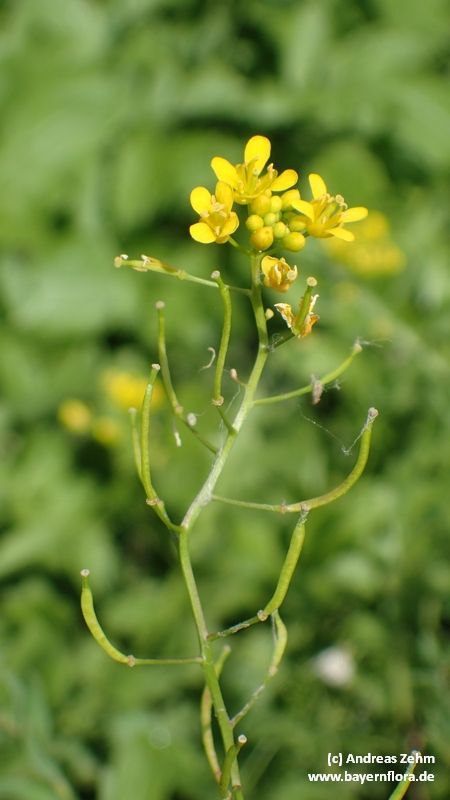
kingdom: Plantae
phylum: Tracheophyta
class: Magnoliopsida
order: Brassicales
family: Brassicaceae
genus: Rorippa
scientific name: Rorippa sylvestris
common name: Creeping yellowcress
